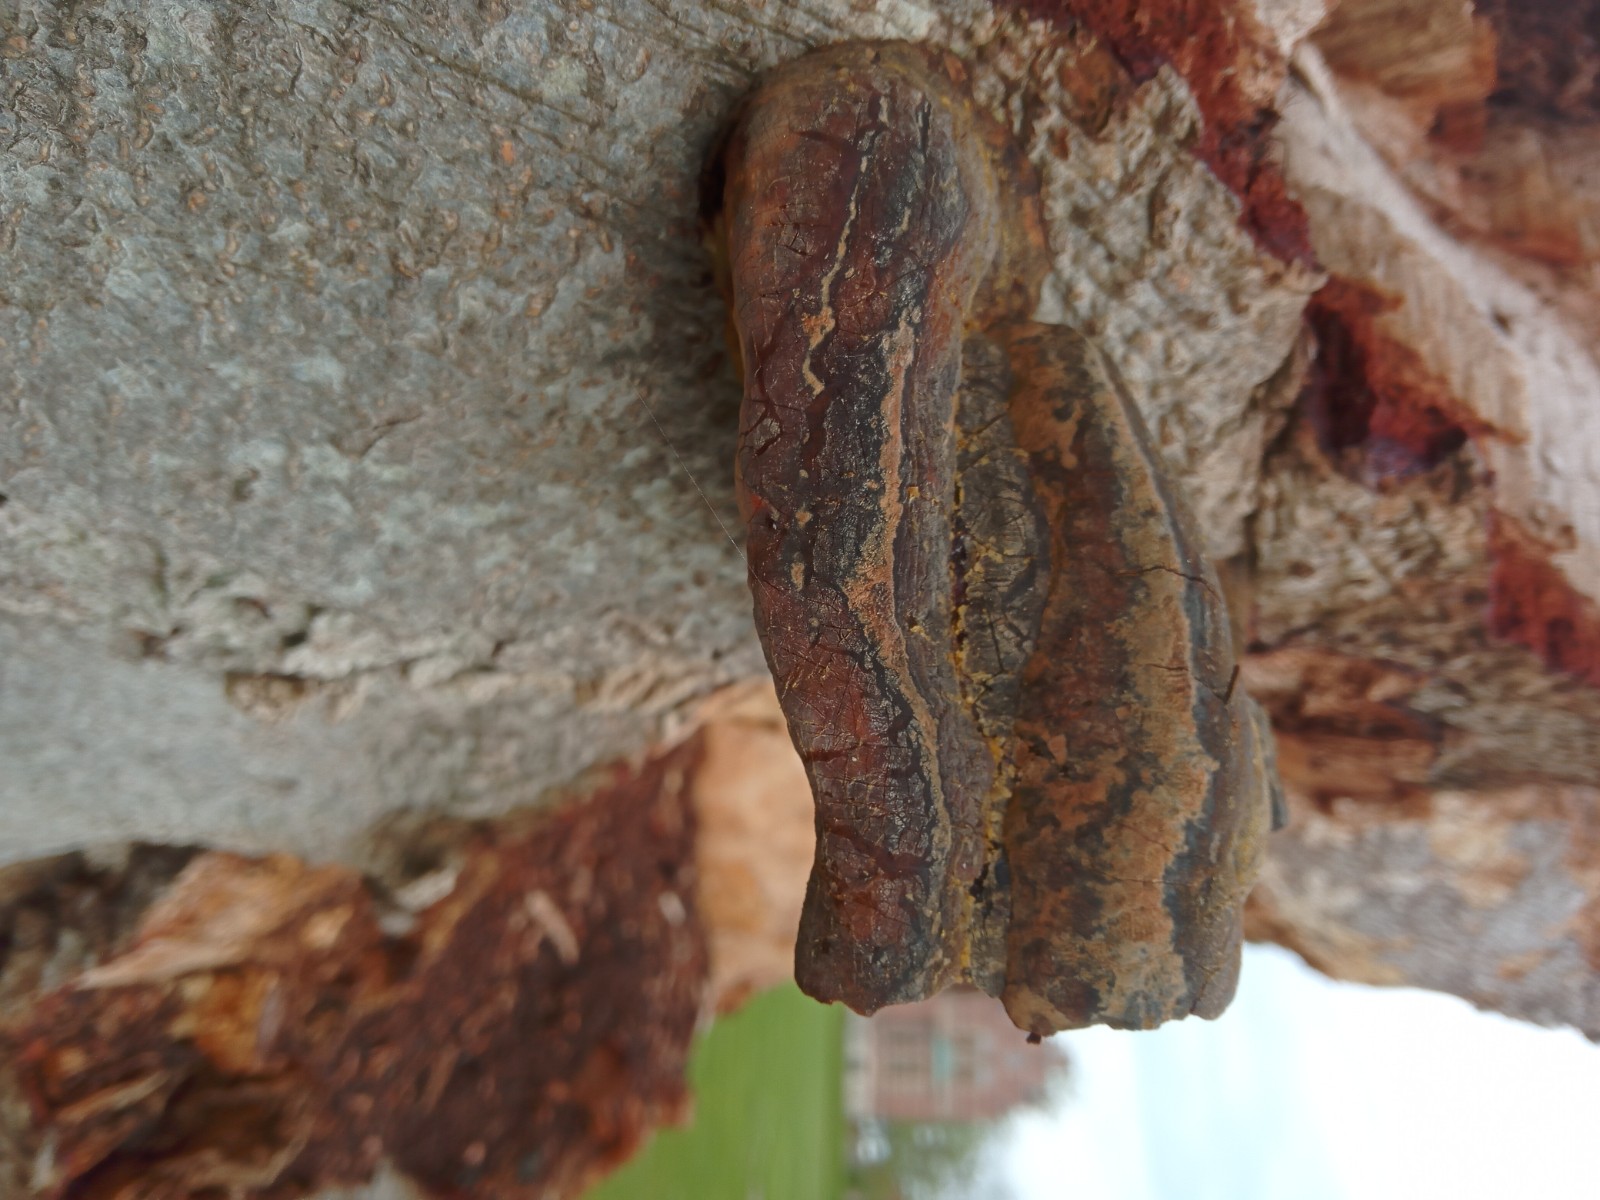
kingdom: Fungi
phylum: Basidiomycota
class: Agaricomycetes
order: Polyporales
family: Polyporaceae
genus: Ganoderma
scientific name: Ganoderma pfeifferi
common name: kobberrød lakporesvamp
